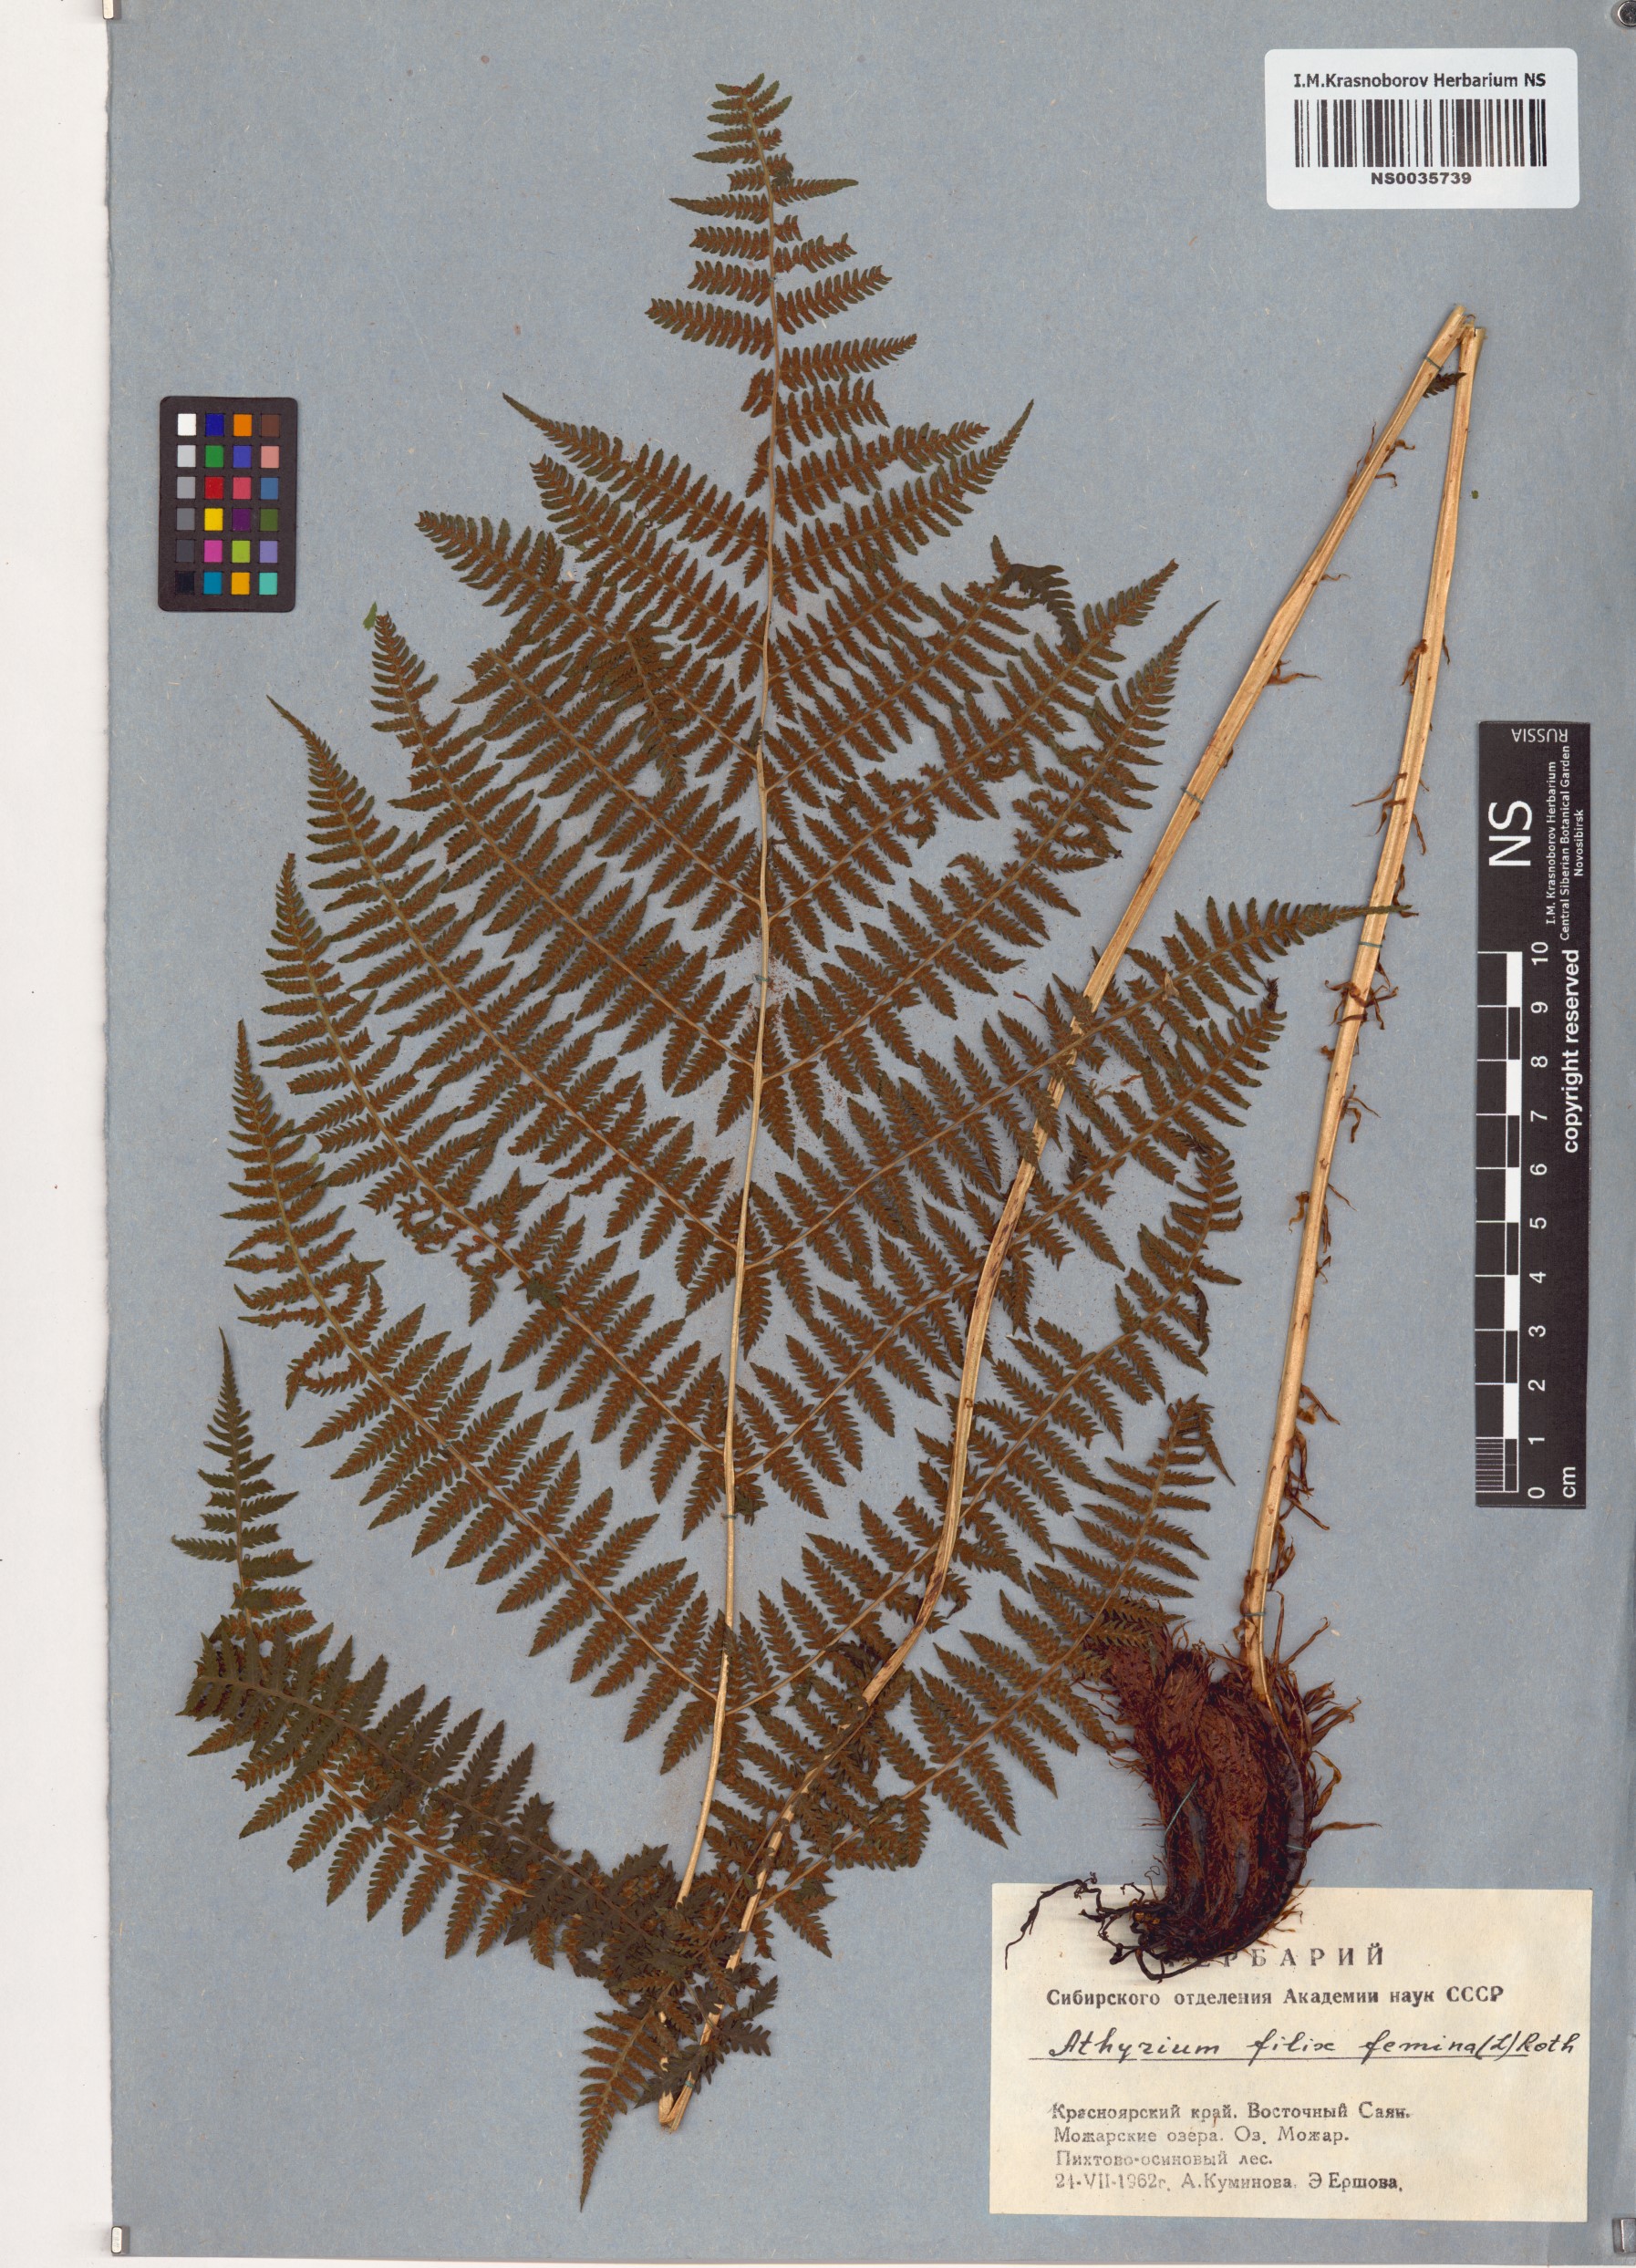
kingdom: Plantae
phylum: Tracheophyta
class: Polypodiopsida
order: Polypodiales
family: Athyriaceae
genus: Athyrium
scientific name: Athyrium filix-femina
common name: Lady fern
